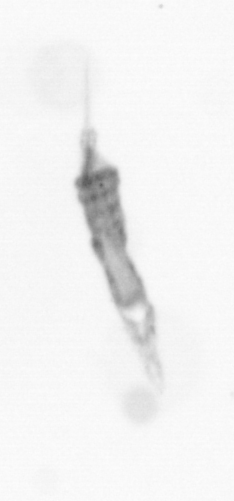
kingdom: Animalia
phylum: Arthropoda
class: Copepoda
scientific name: Copepoda
